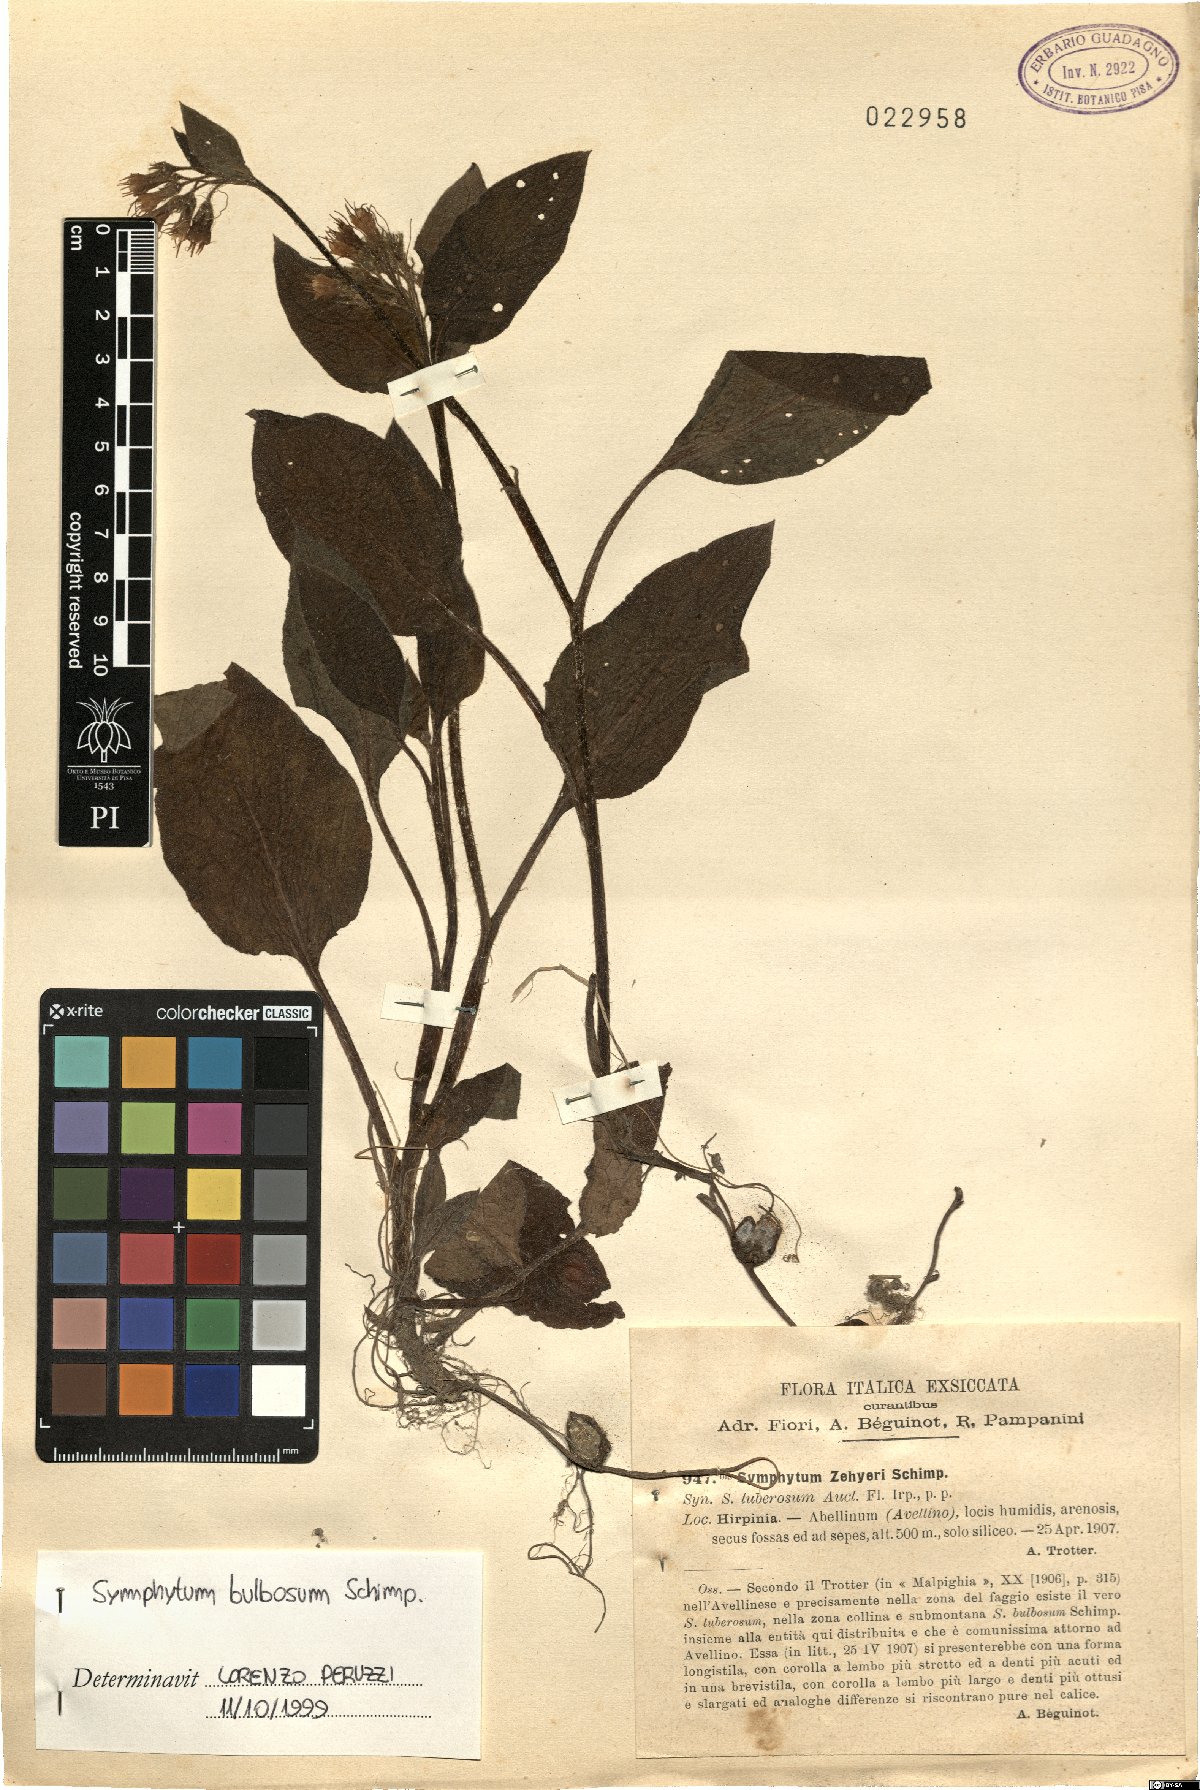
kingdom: Plantae
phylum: Tracheophyta
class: Magnoliopsida
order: Boraginales
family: Boraginaceae
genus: Symphytum
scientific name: Symphytum bulbosum
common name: Bulbous comfrey
